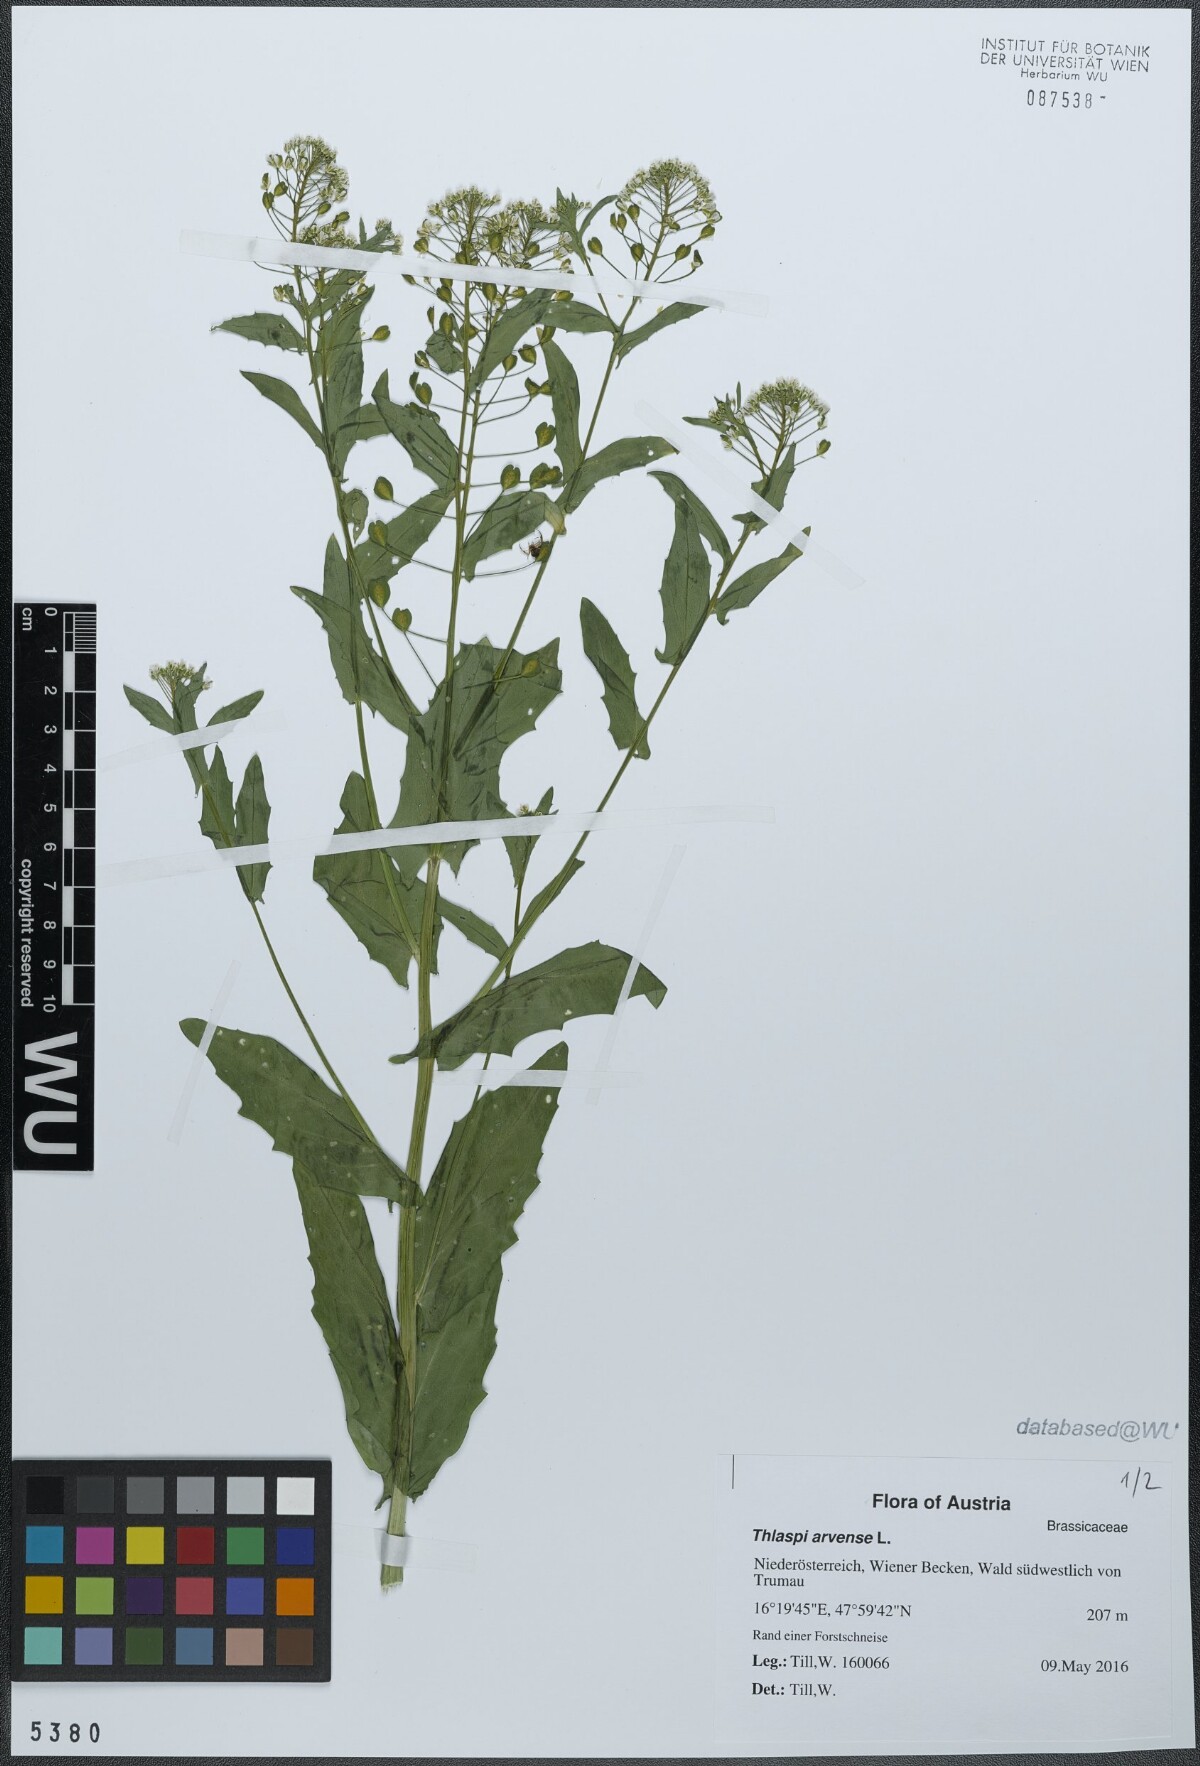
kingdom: Plantae
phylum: Tracheophyta
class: Magnoliopsida
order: Brassicales
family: Brassicaceae
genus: Thlaspi
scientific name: Thlaspi arvense
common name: Field pennycress
